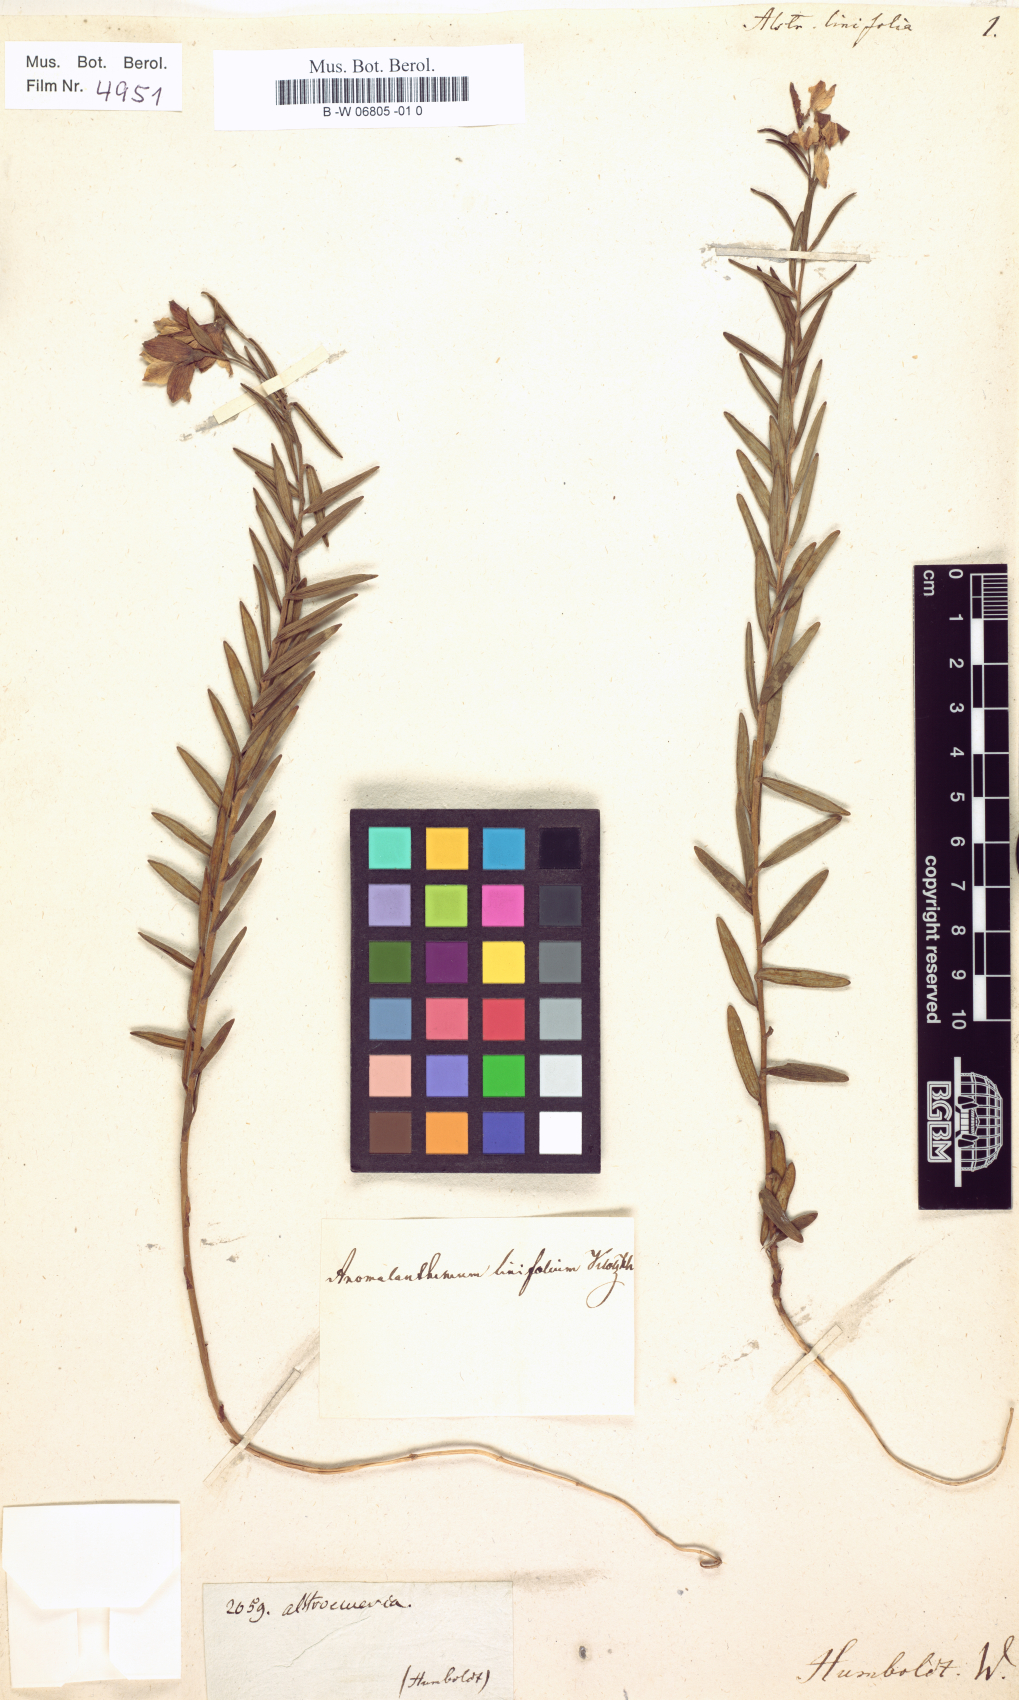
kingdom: Plantae
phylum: Tracheophyta
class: Liliopsida
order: Liliales
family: Alstroemeriaceae
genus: Bomarea
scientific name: Bomarea linifolia
